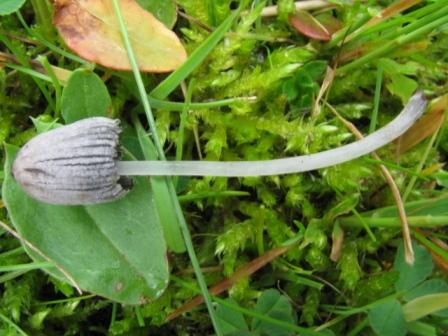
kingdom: Fungi
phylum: Basidiomycota
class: Agaricomycetes
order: Agaricales
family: Psathyrellaceae
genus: Coprinopsis
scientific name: Coprinopsis martinii
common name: rigkær-blækhat
